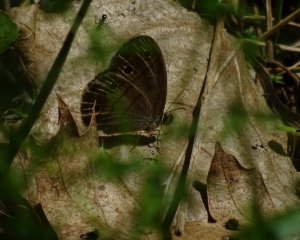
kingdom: Animalia
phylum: Arthropoda
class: Insecta
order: Lepidoptera
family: Nymphalidae
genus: Euptychia
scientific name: Euptychia cymela
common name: Little Wood Satyr
